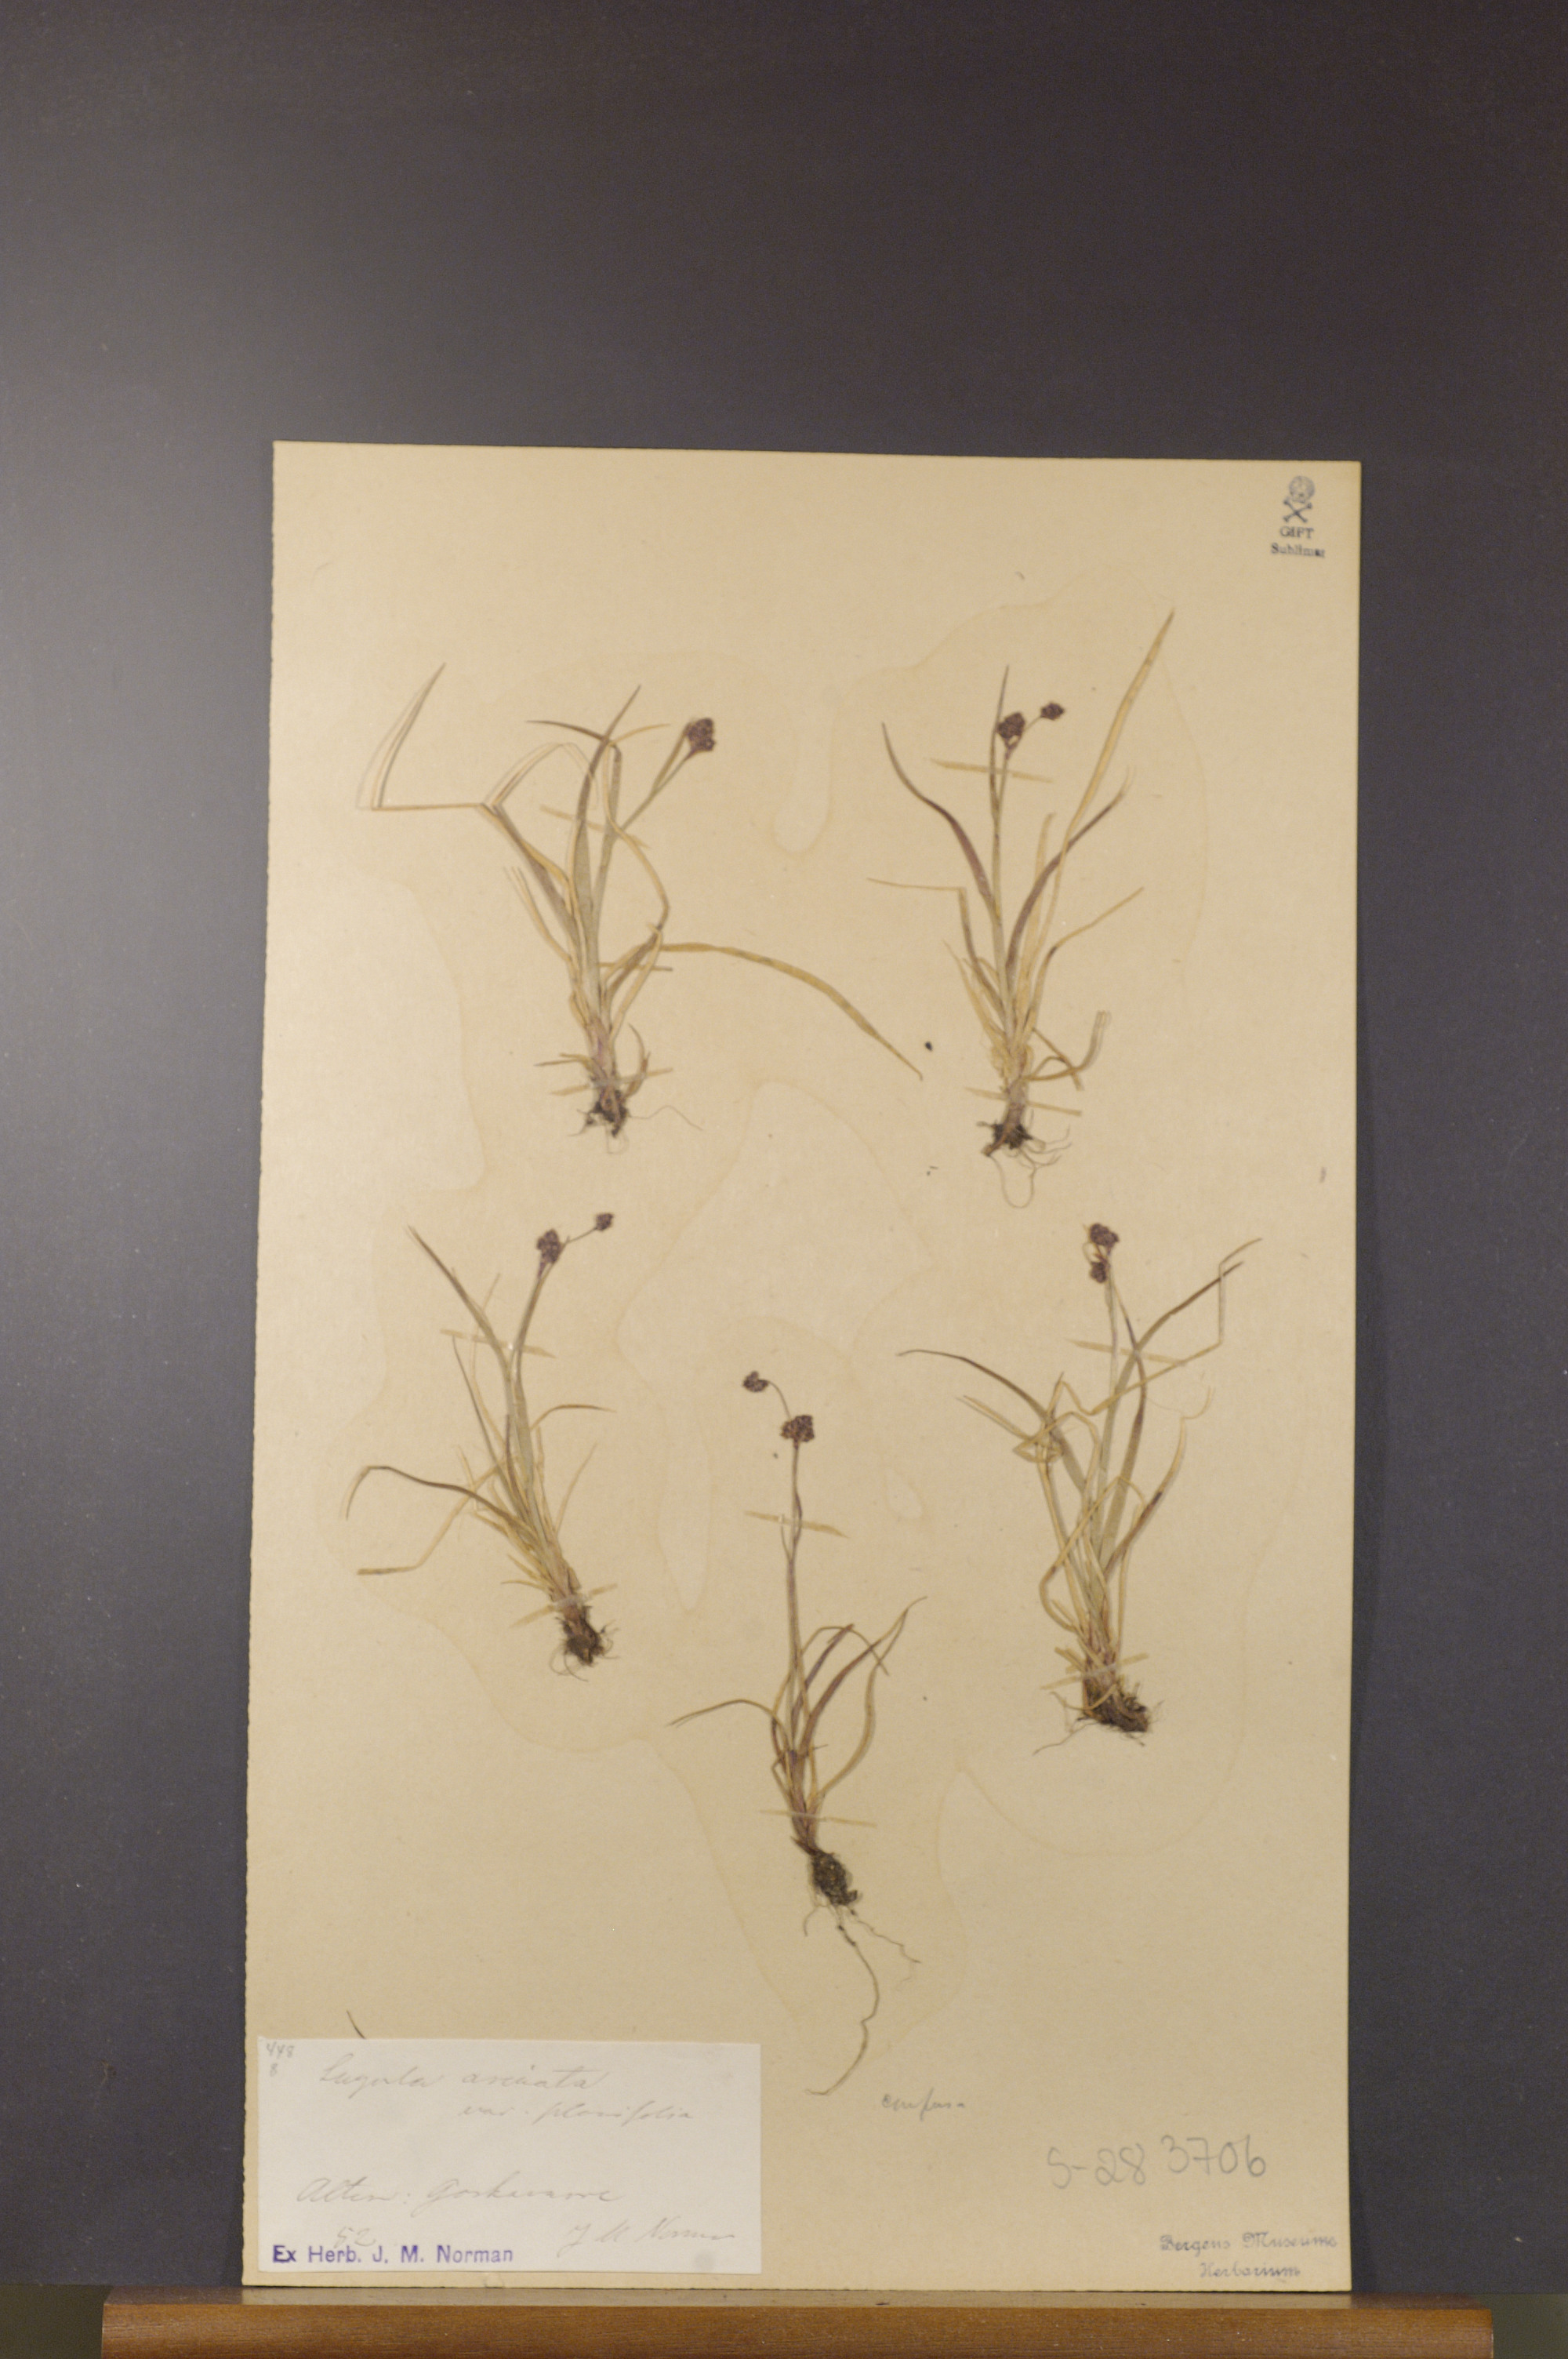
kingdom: Plantae
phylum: Tracheophyta
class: Liliopsida
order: Poales
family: Juncaceae
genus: Luzula
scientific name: Luzula arcuata
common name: Curved wood-rush
